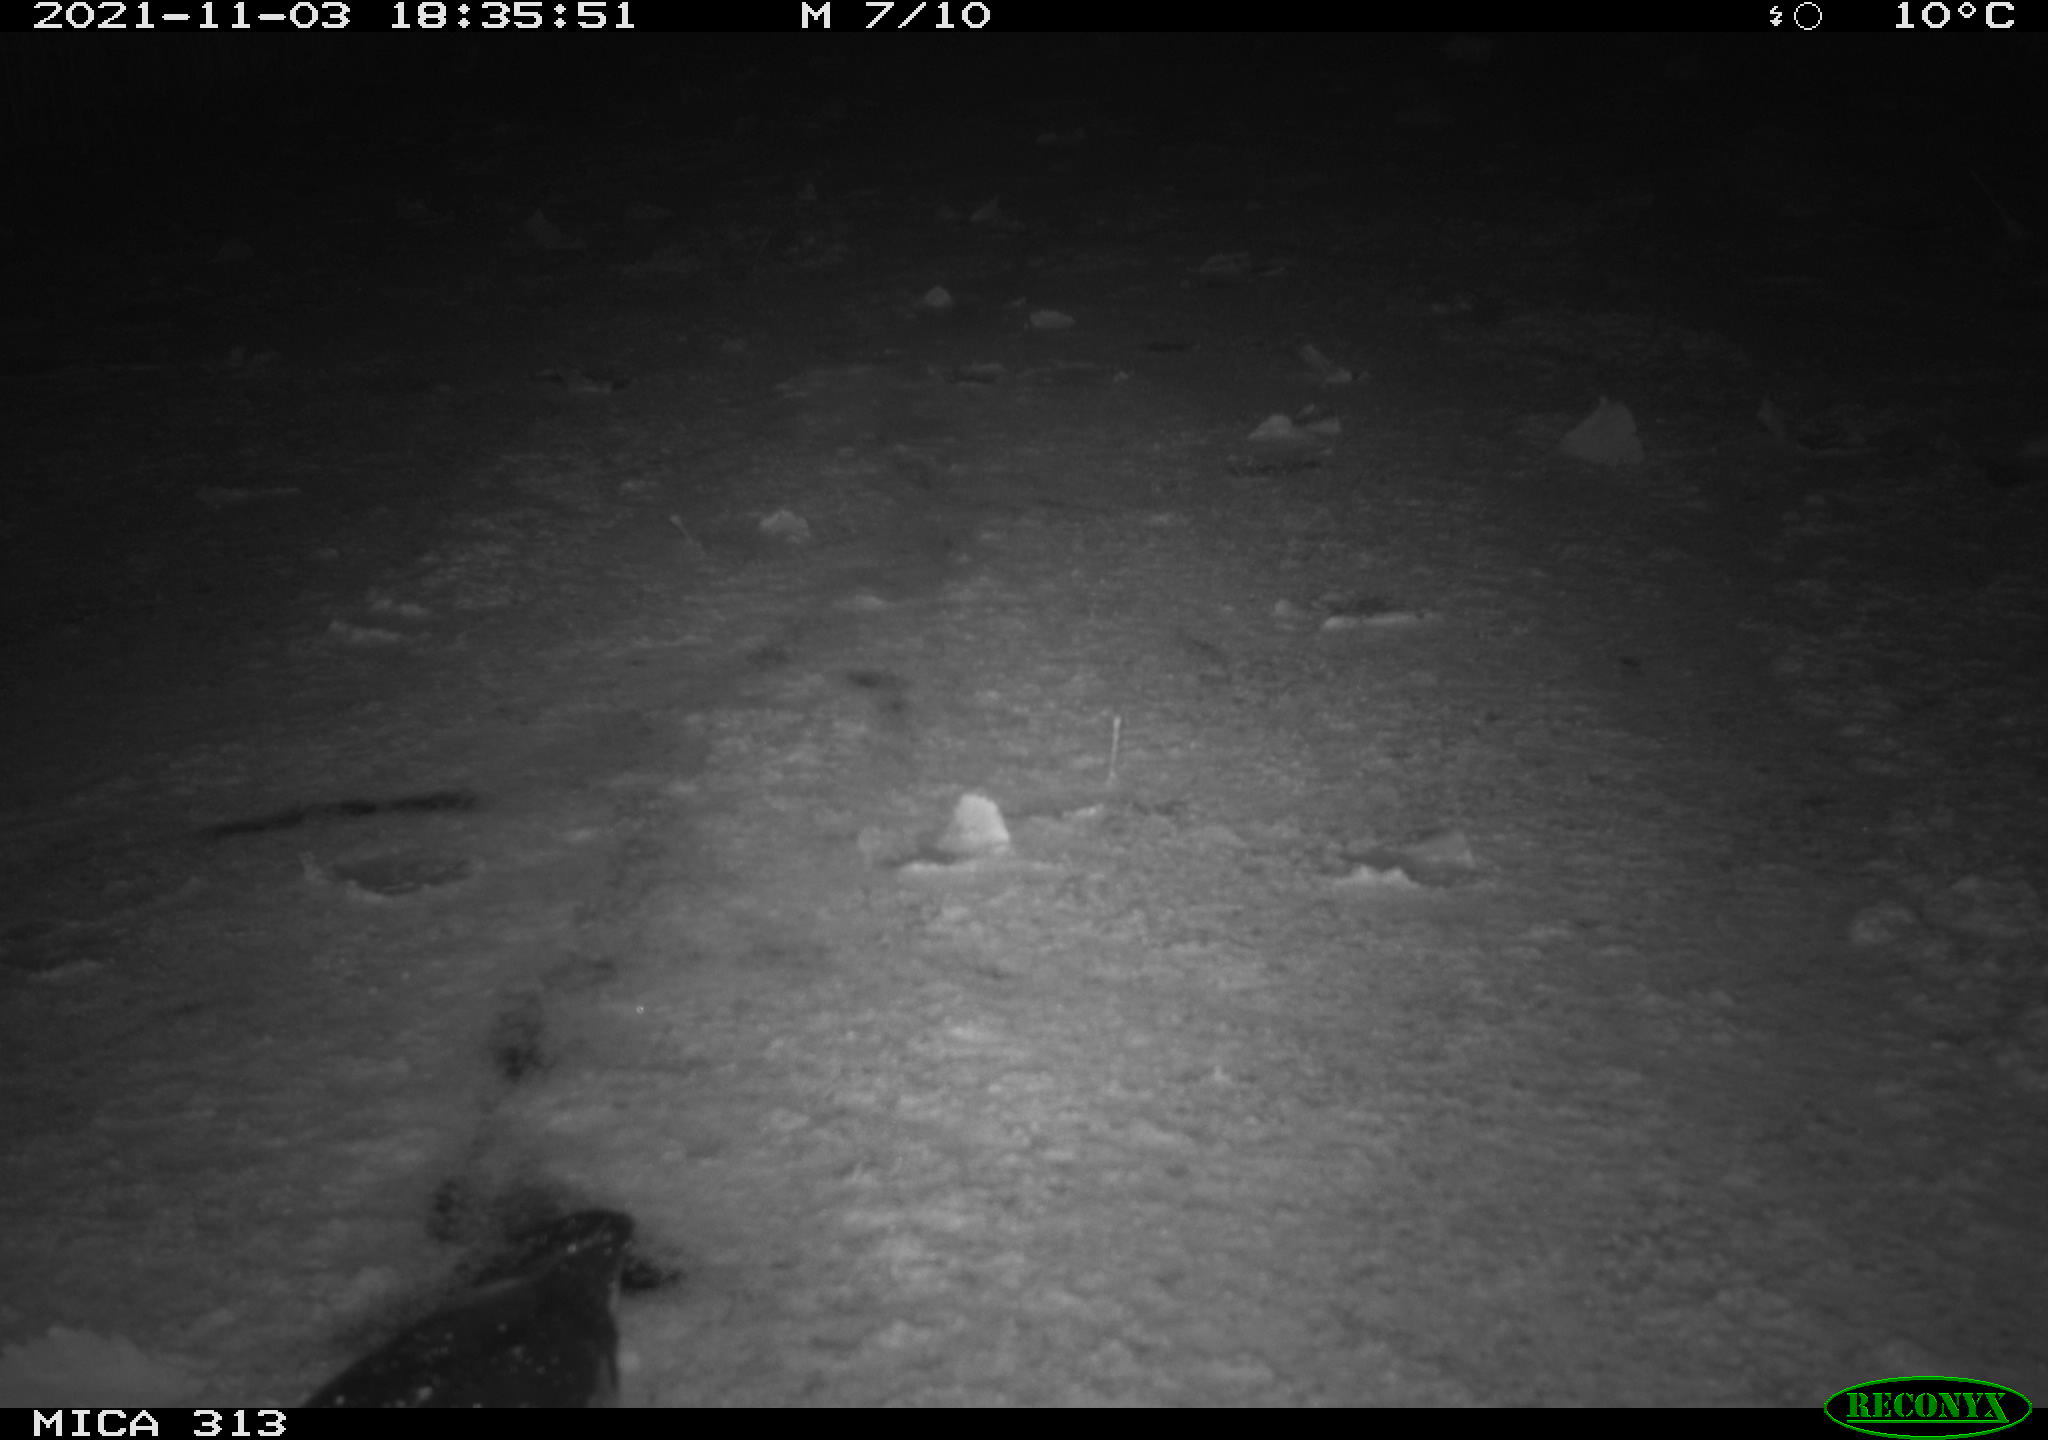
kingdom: Animalia
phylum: Chordata
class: Aves
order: Gruiformes
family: Rallidae
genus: Fulica
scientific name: Fulica atra
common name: Eurasian coot
